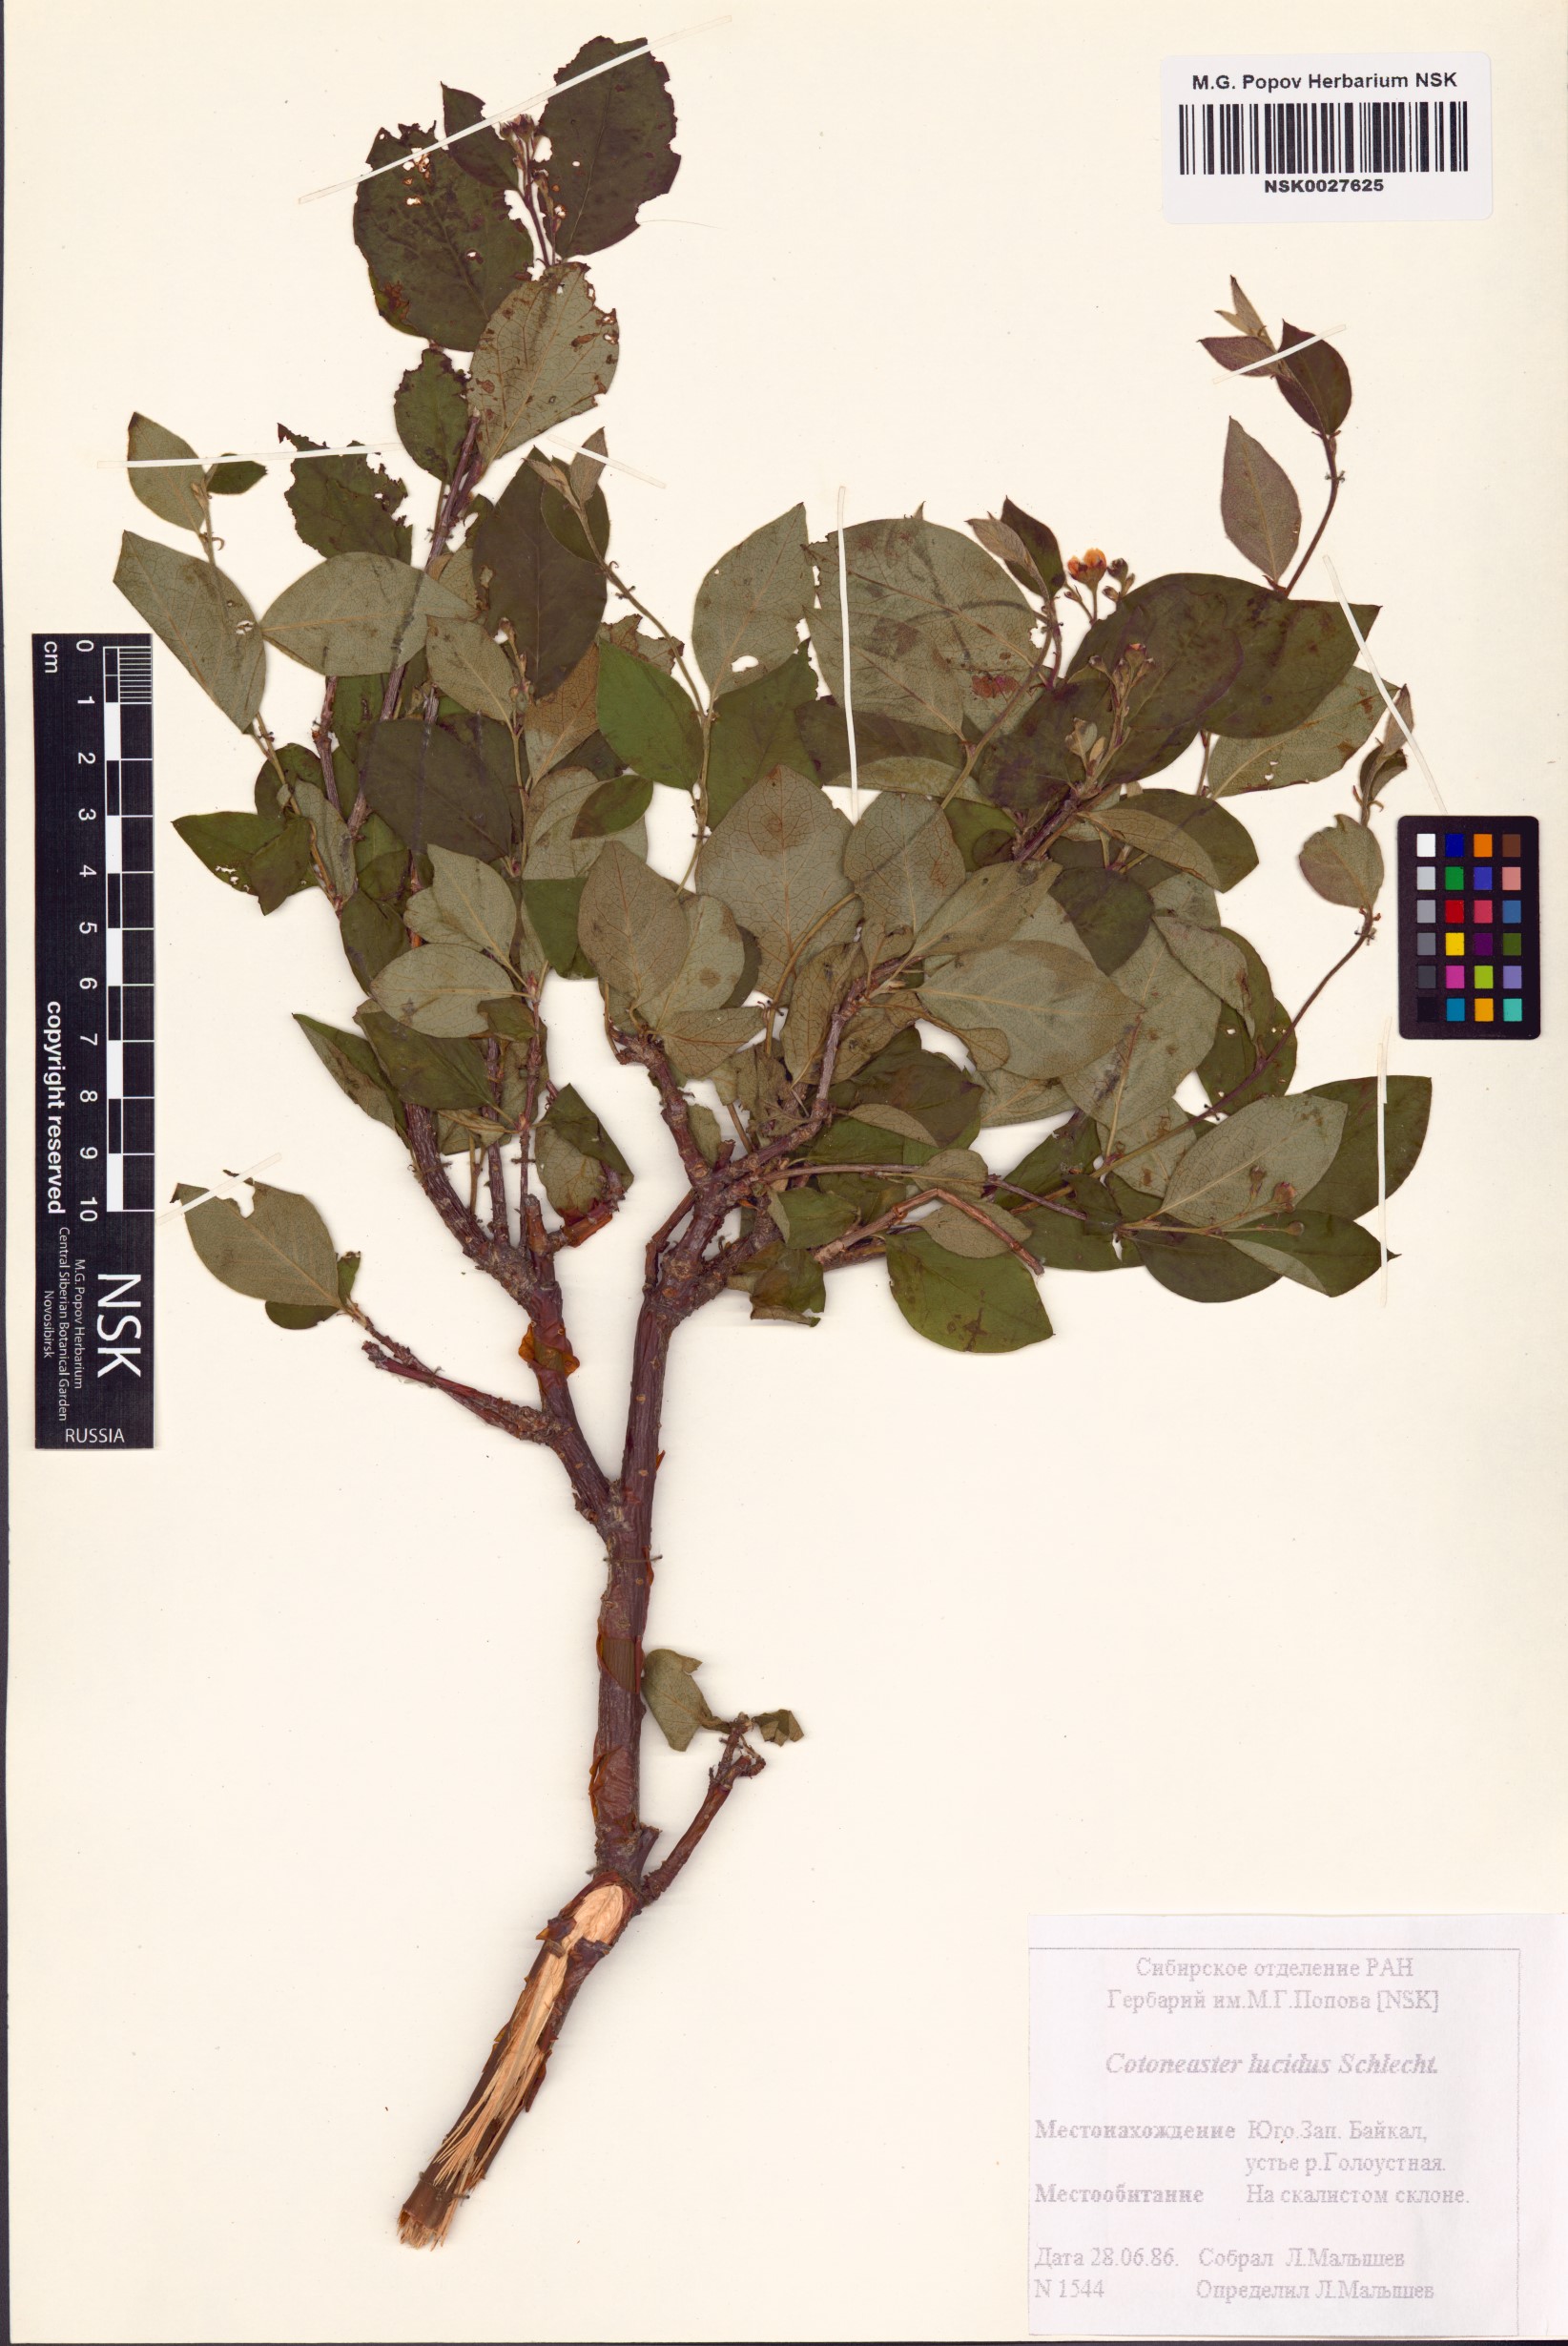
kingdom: Plantae
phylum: Tracheophyta
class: Magnoliopsida
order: Rosales
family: Rosaceae
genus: Cotoneaster
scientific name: Cotoneaster acutifolius
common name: Peking cotoneaster
